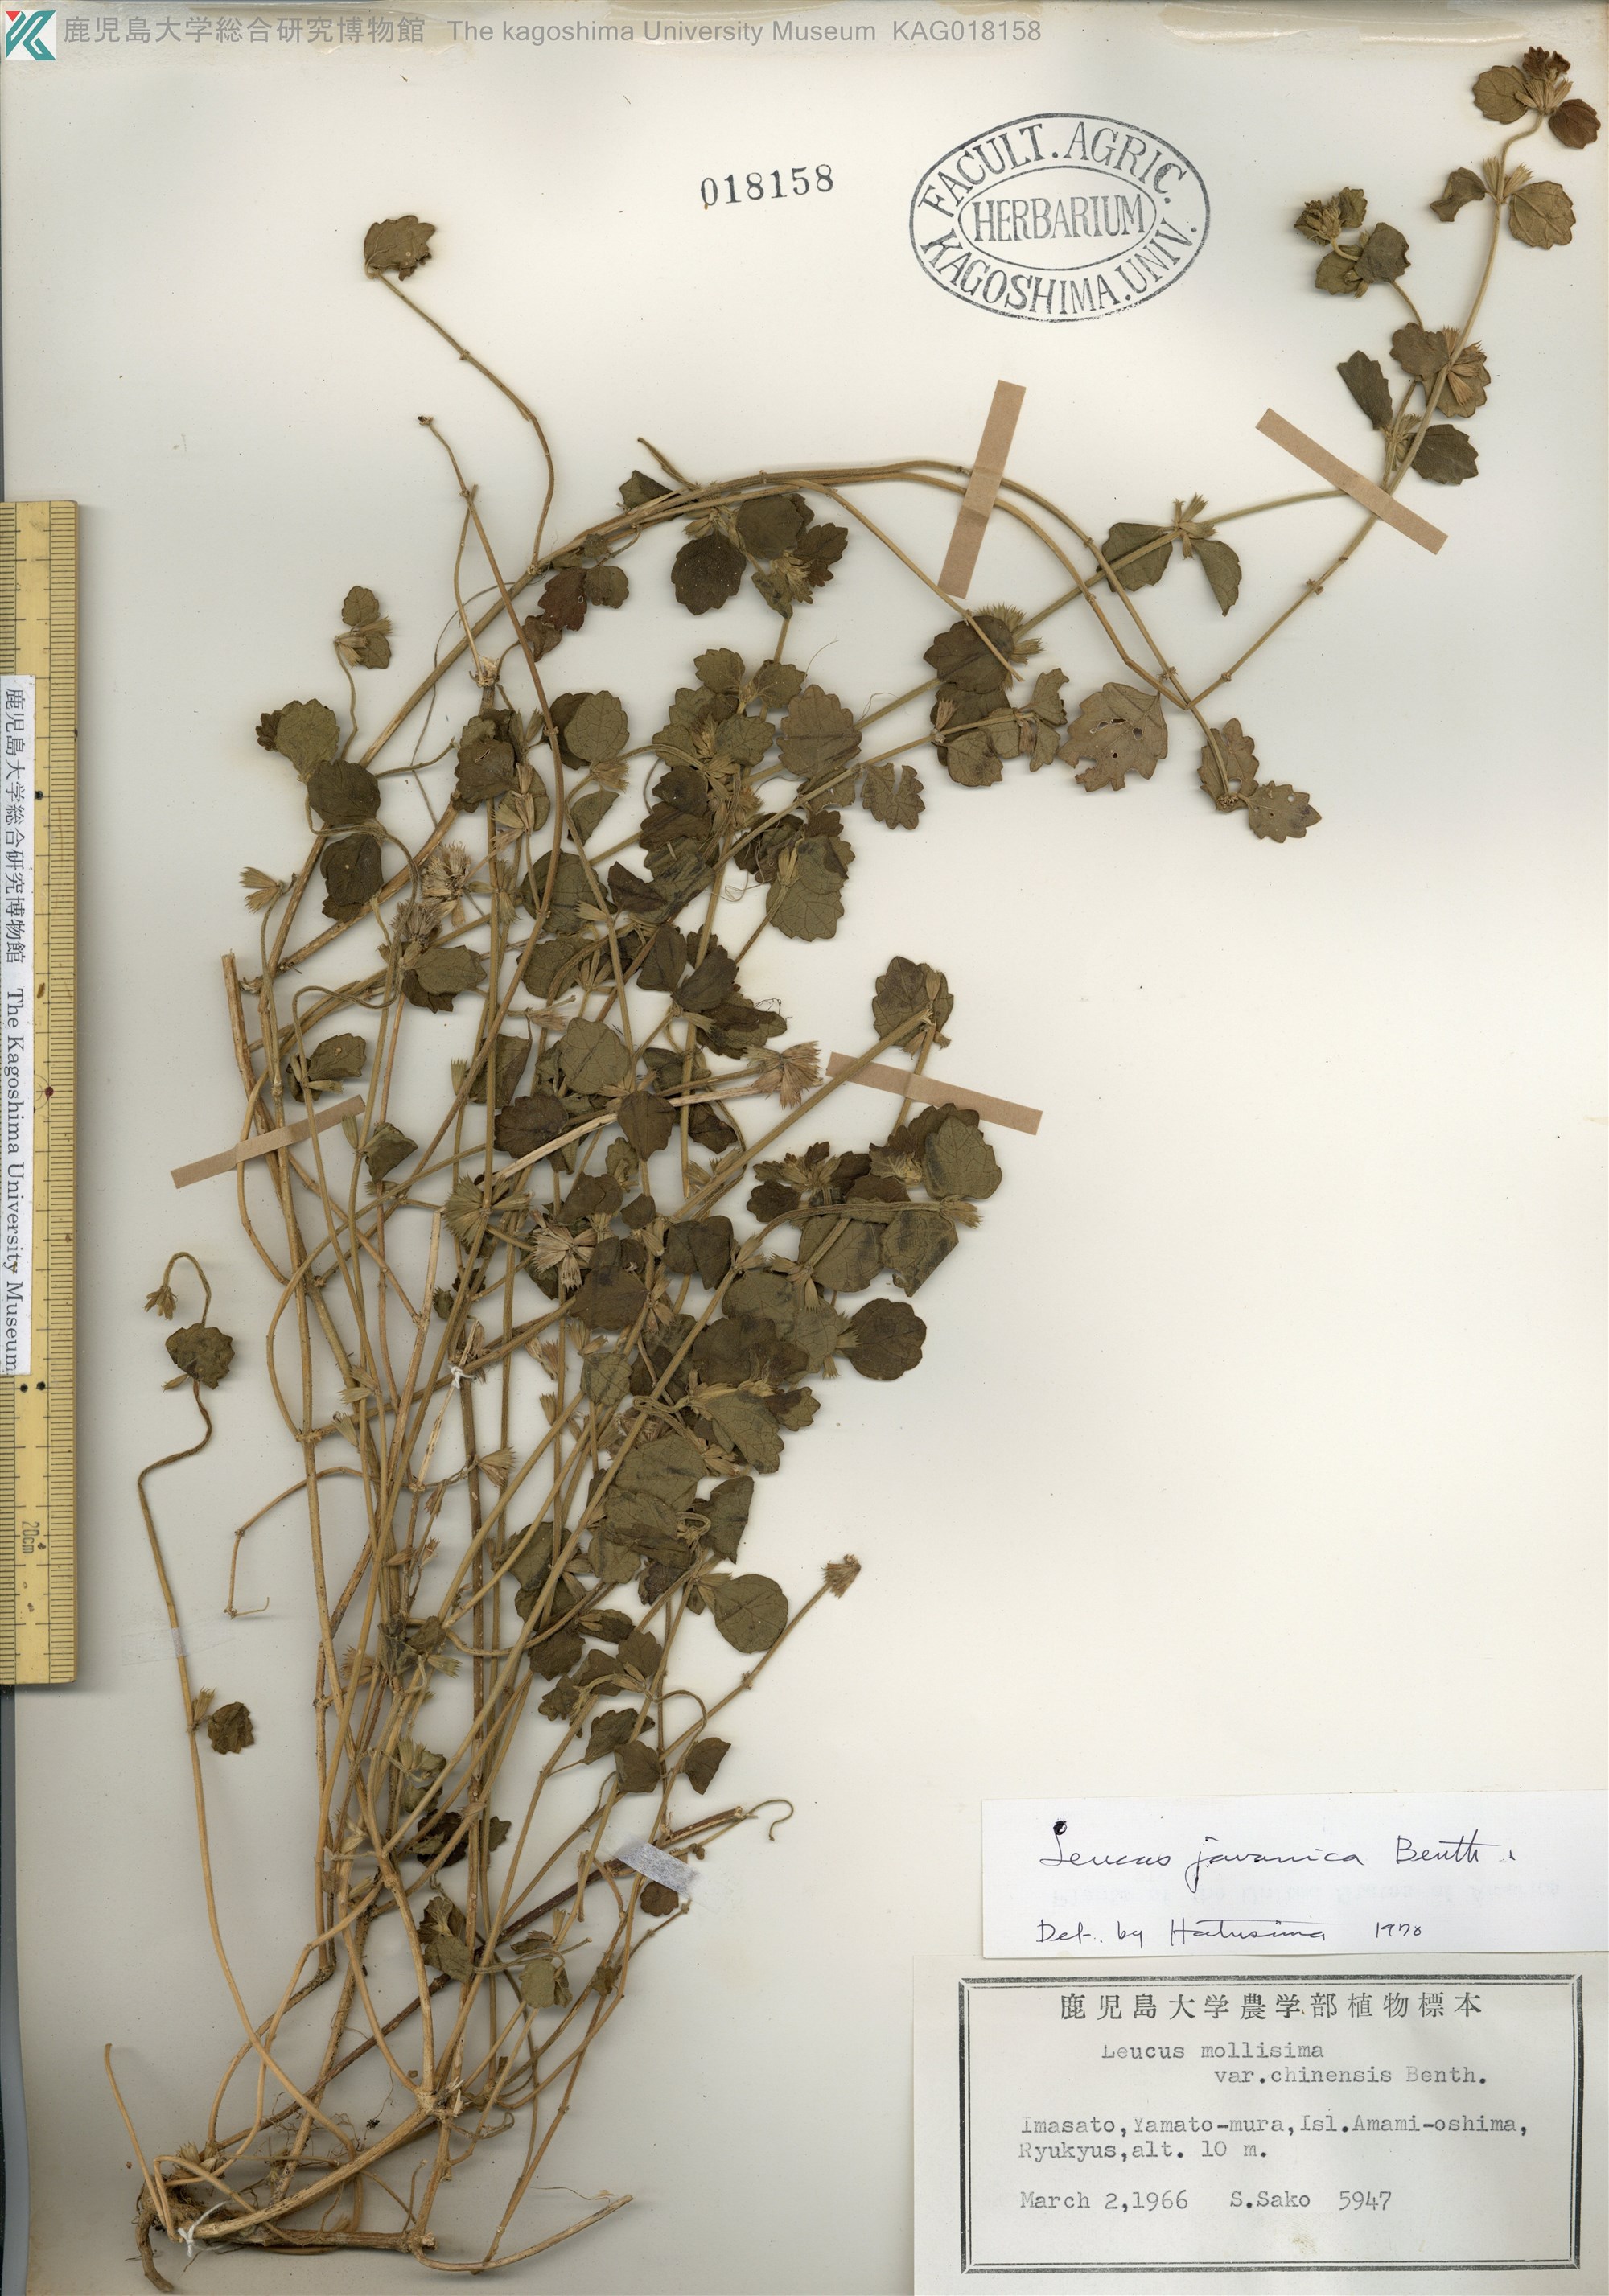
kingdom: Plantae
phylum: Tracheophyta
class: Magnoliopsida
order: Lamiales
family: Lamiaceae
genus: Leucas
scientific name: Leucas chinensis
